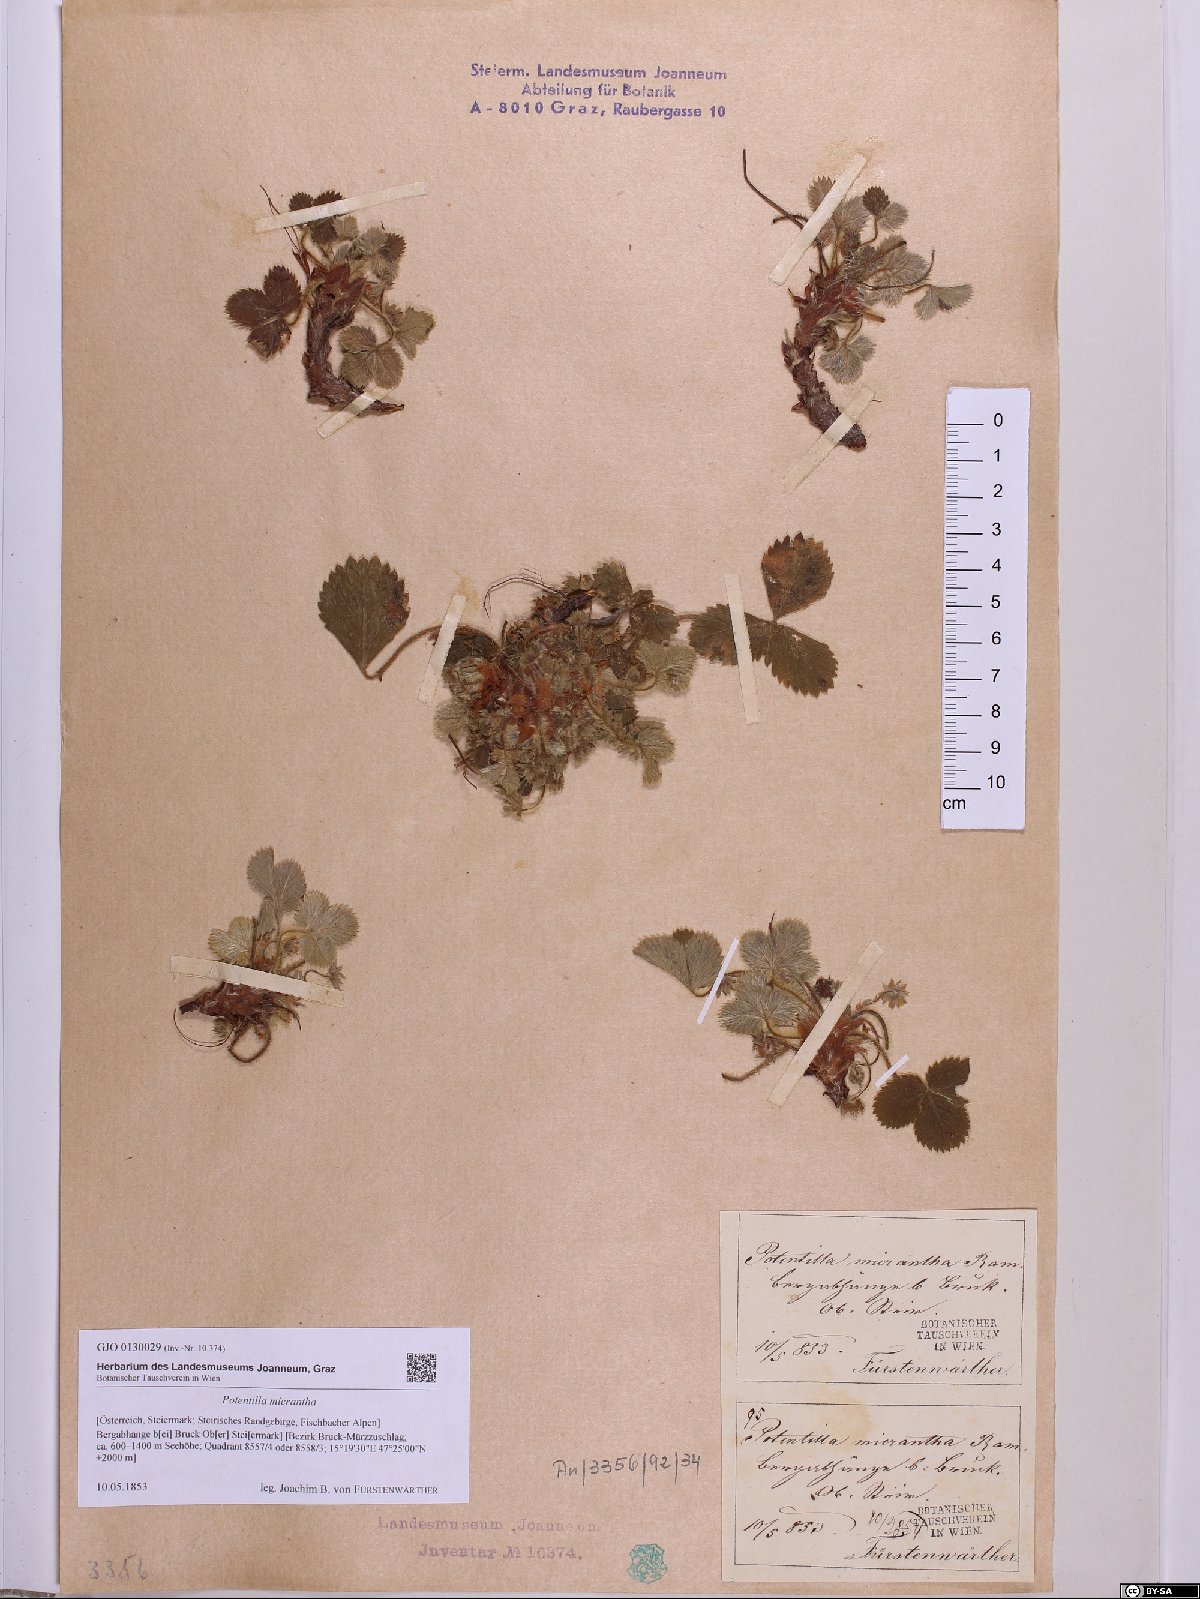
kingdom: Plantae
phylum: Tracheophyta
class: Magnoliopsida
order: Rosales
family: Rosaceae
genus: Potentilla
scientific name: Potentilla micrantha
